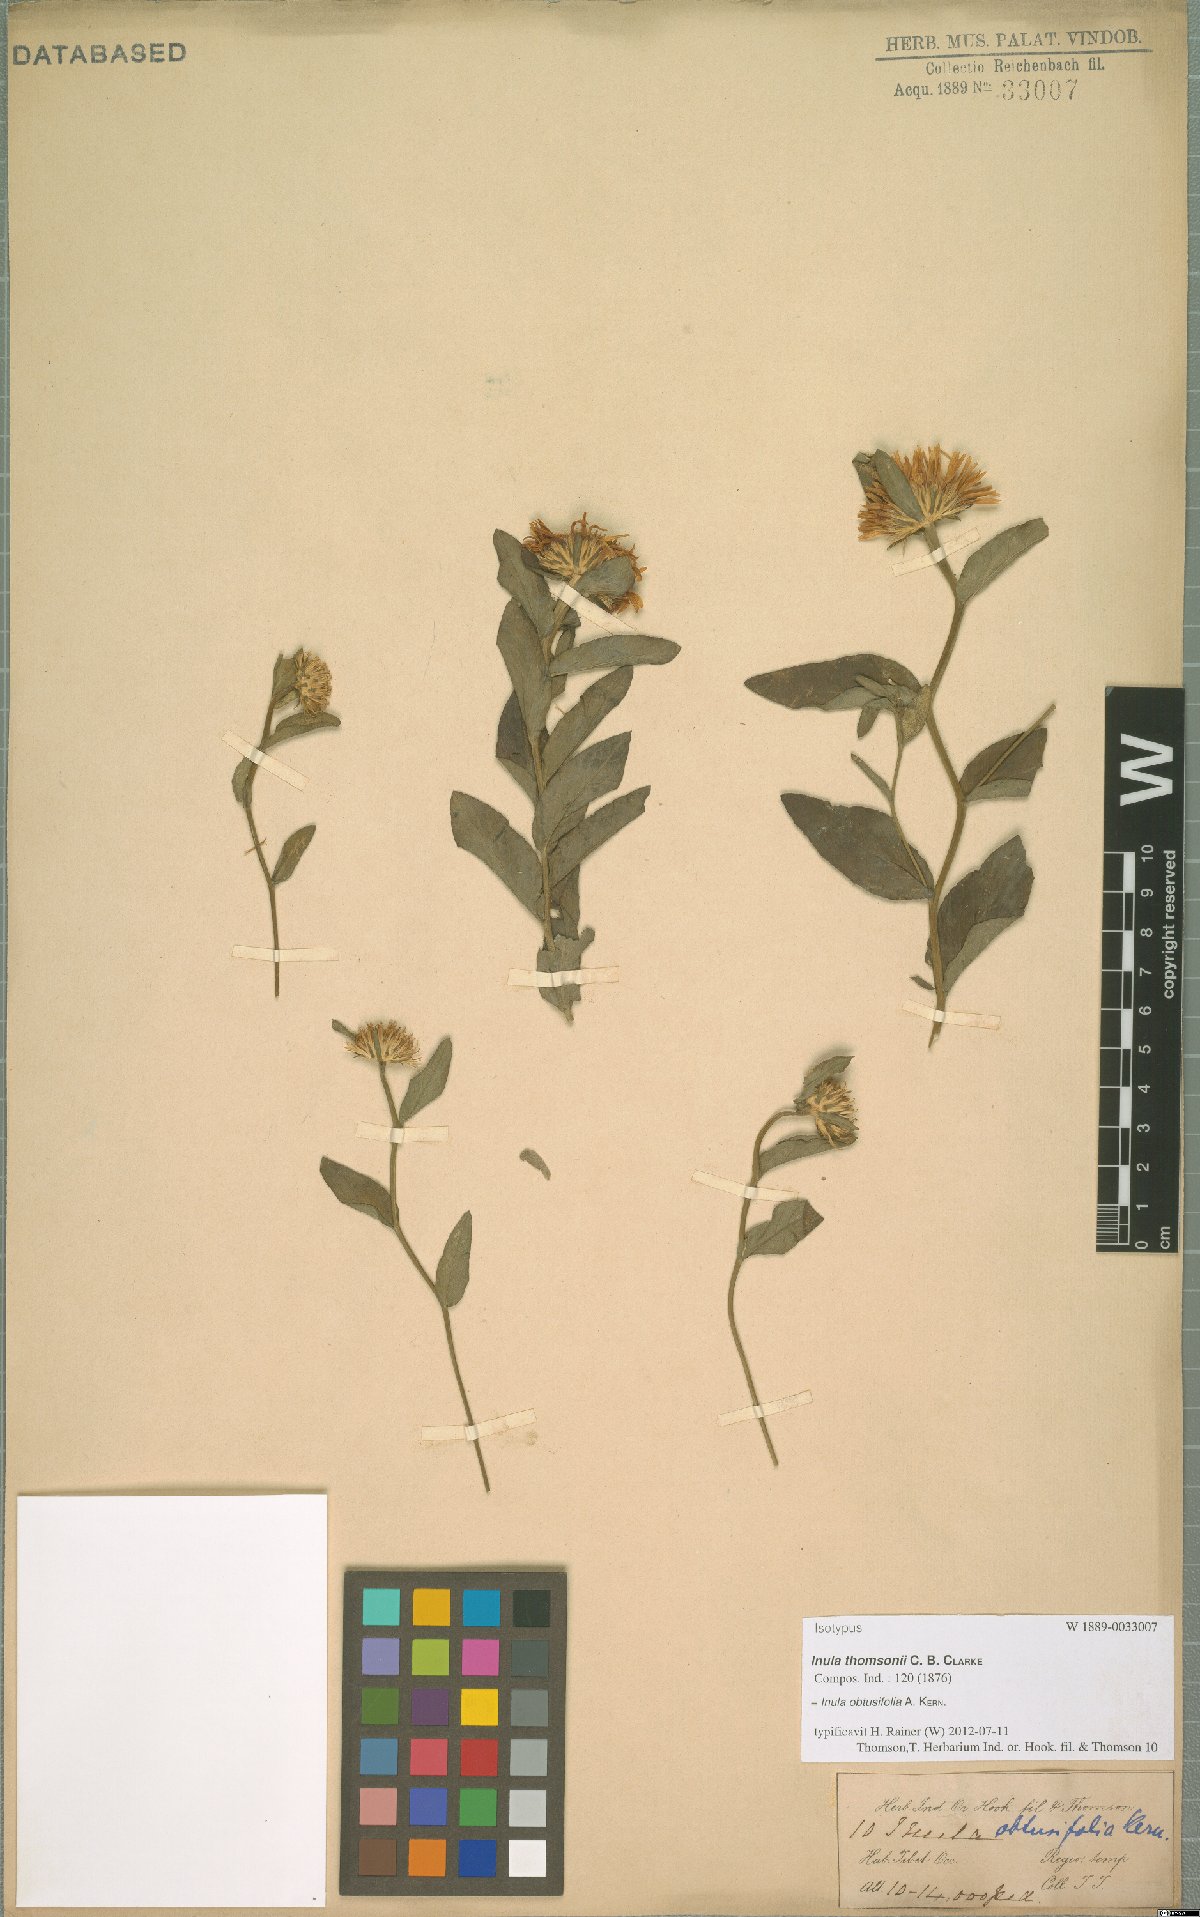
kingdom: Plantae
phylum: Tracheophyta
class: Magnoliopsida
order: Asterales
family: Asteraceae
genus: Inula
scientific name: Inula obtusifolia
